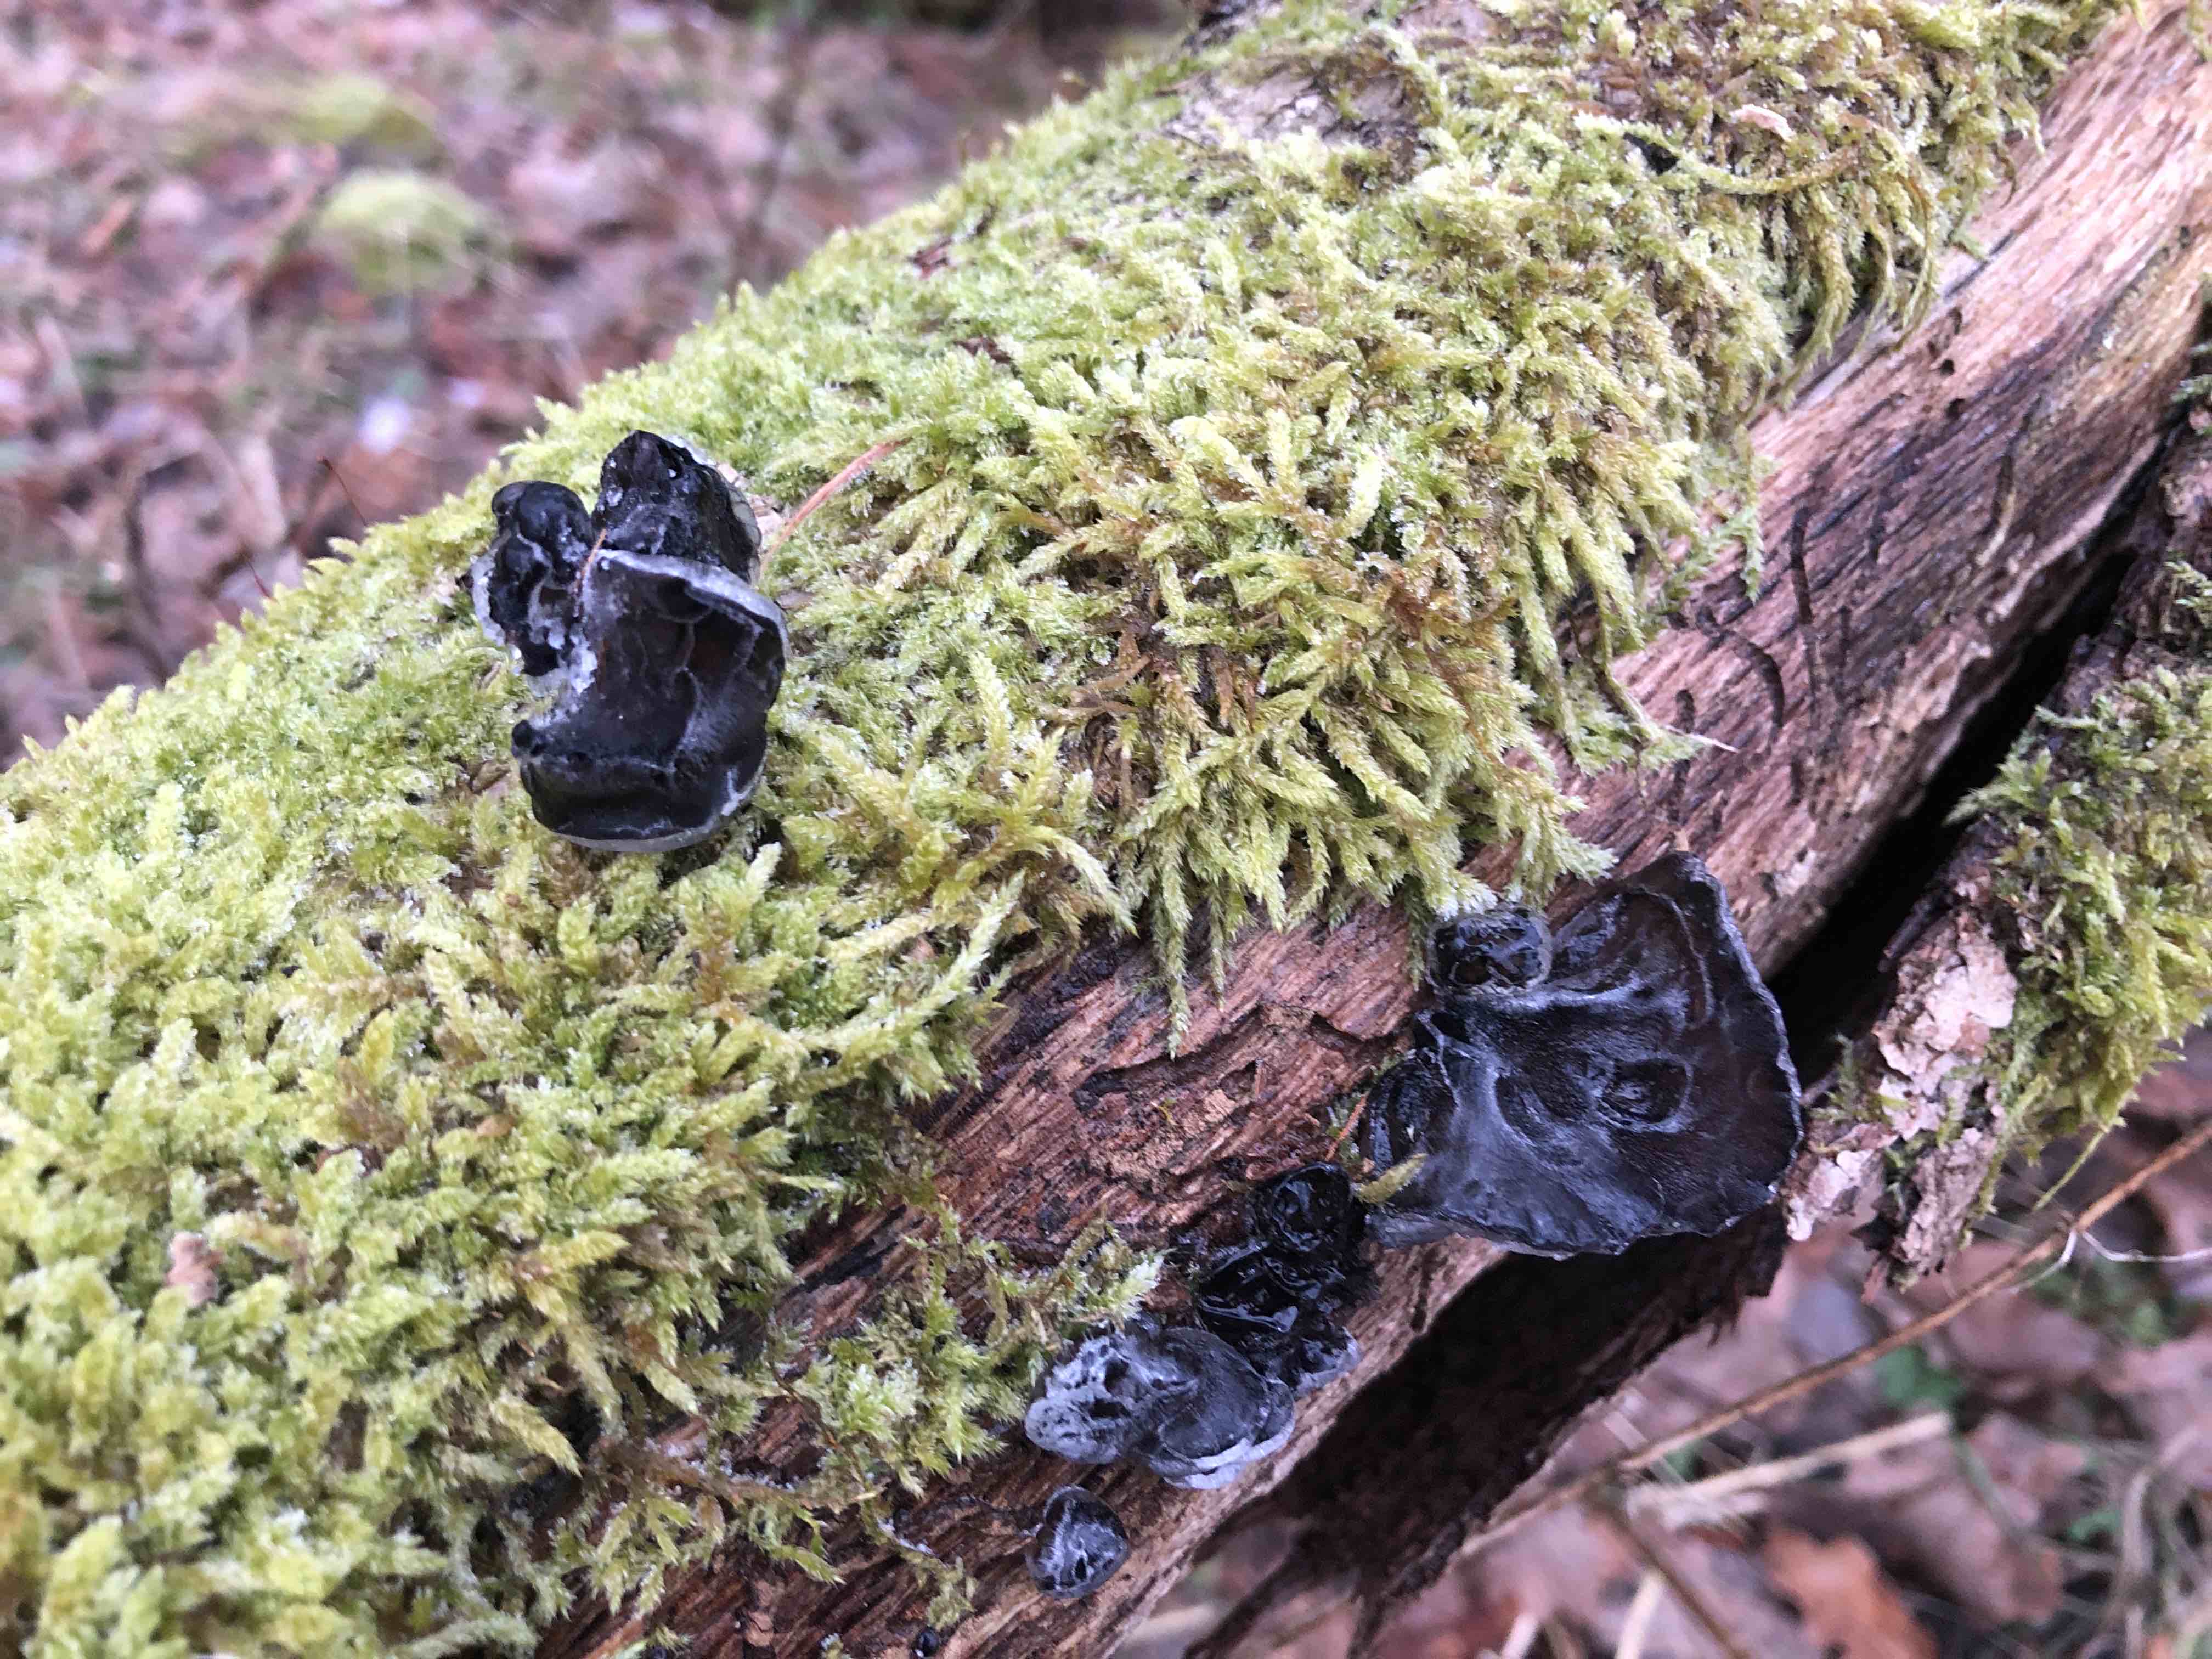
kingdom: Fungi
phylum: Basidiomycota
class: Agaricomycetes
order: Auriculariales
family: Auriculariaceae
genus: Exidia
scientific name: Exidia glandulosa
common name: ege-bævretop
